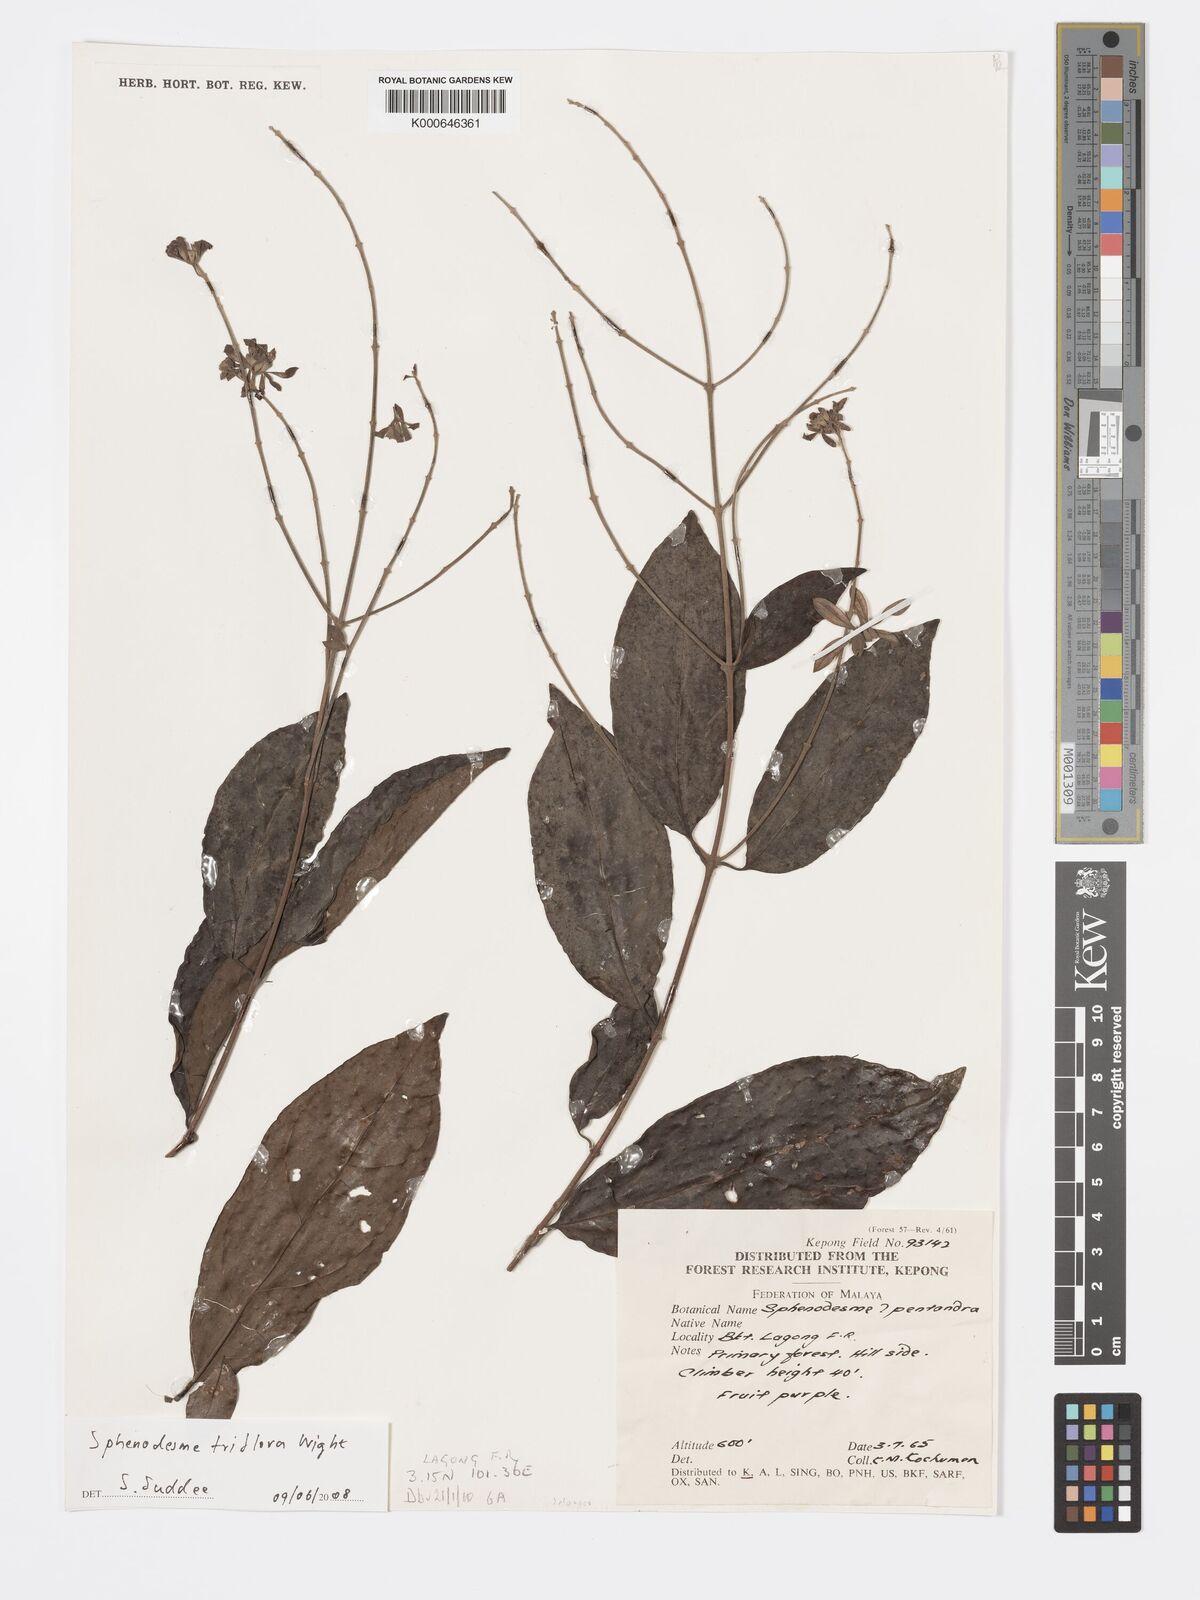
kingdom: Plantae
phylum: Tracheophyta
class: Magnoliopsida
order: Lamiales
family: Lamiaceae
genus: Sphenodesme
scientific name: Sphenodesme
